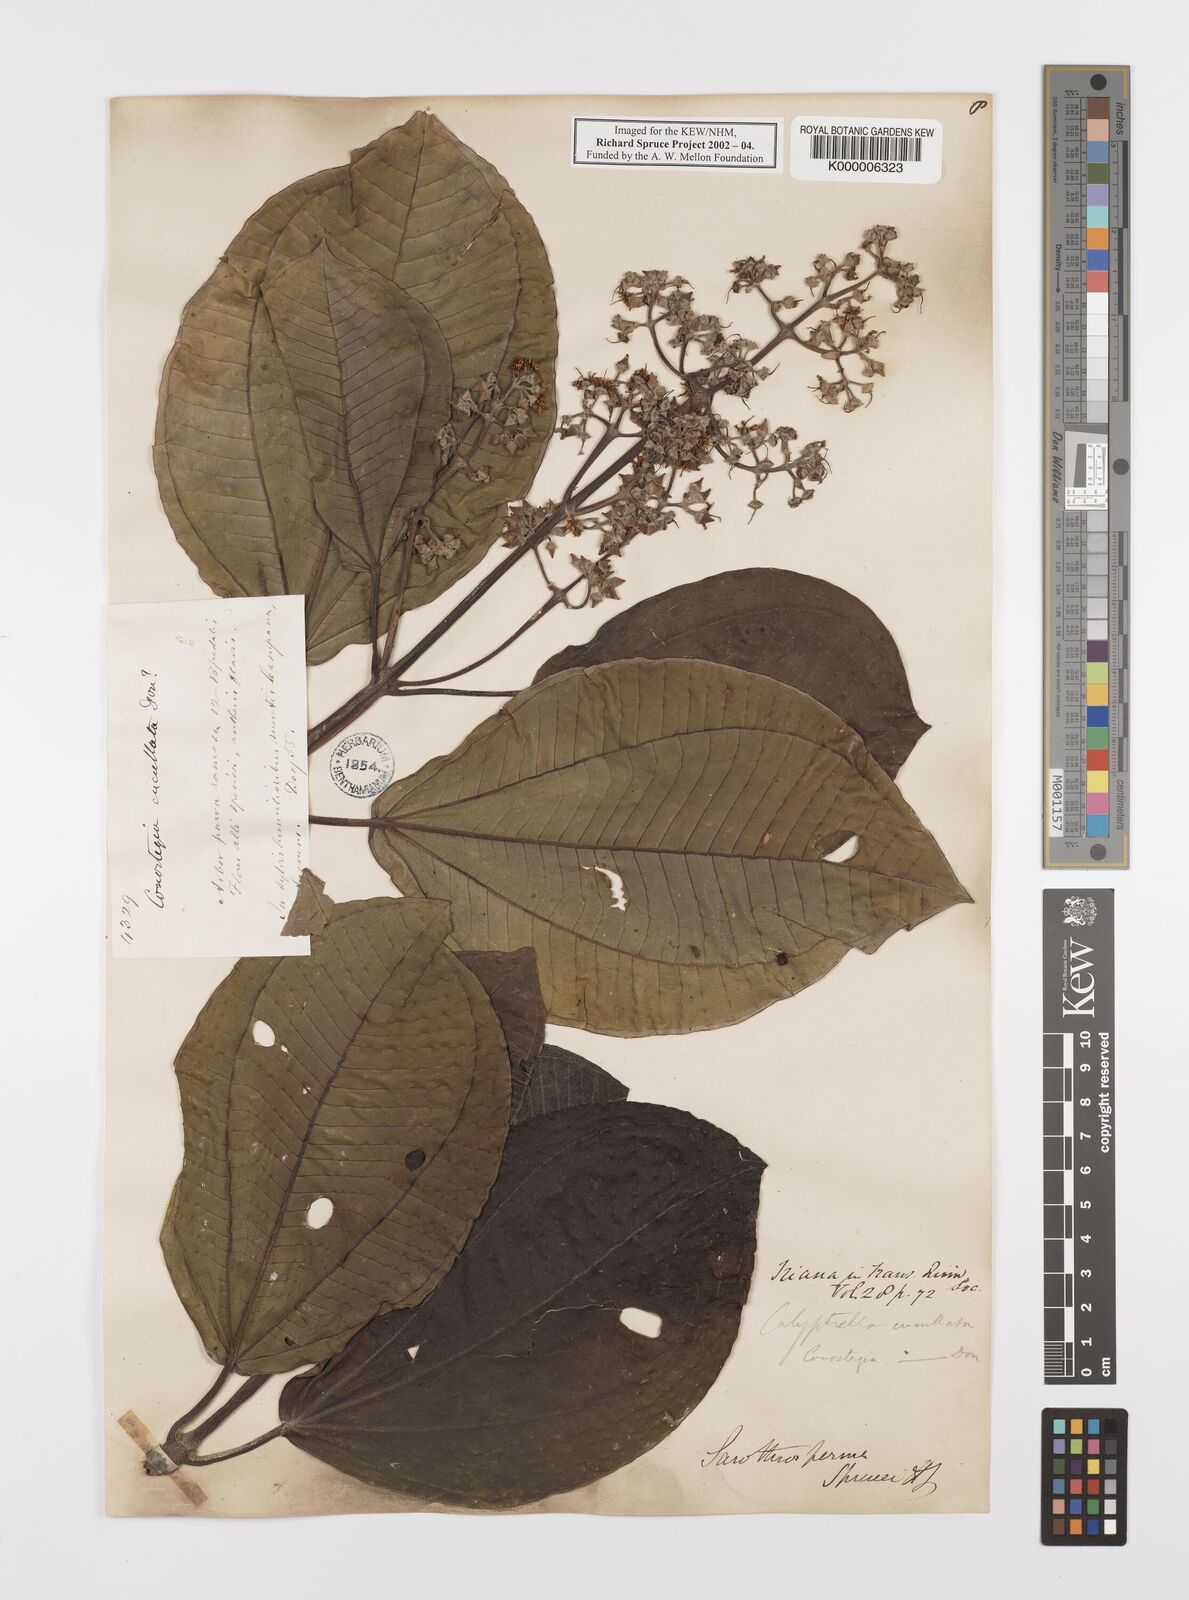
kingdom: Plantae
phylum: Tracheophyta
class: Magnoliopsida
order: Myrtales
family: Melastomataceae
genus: Graffenrieda
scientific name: Graffenrieda cucullata
